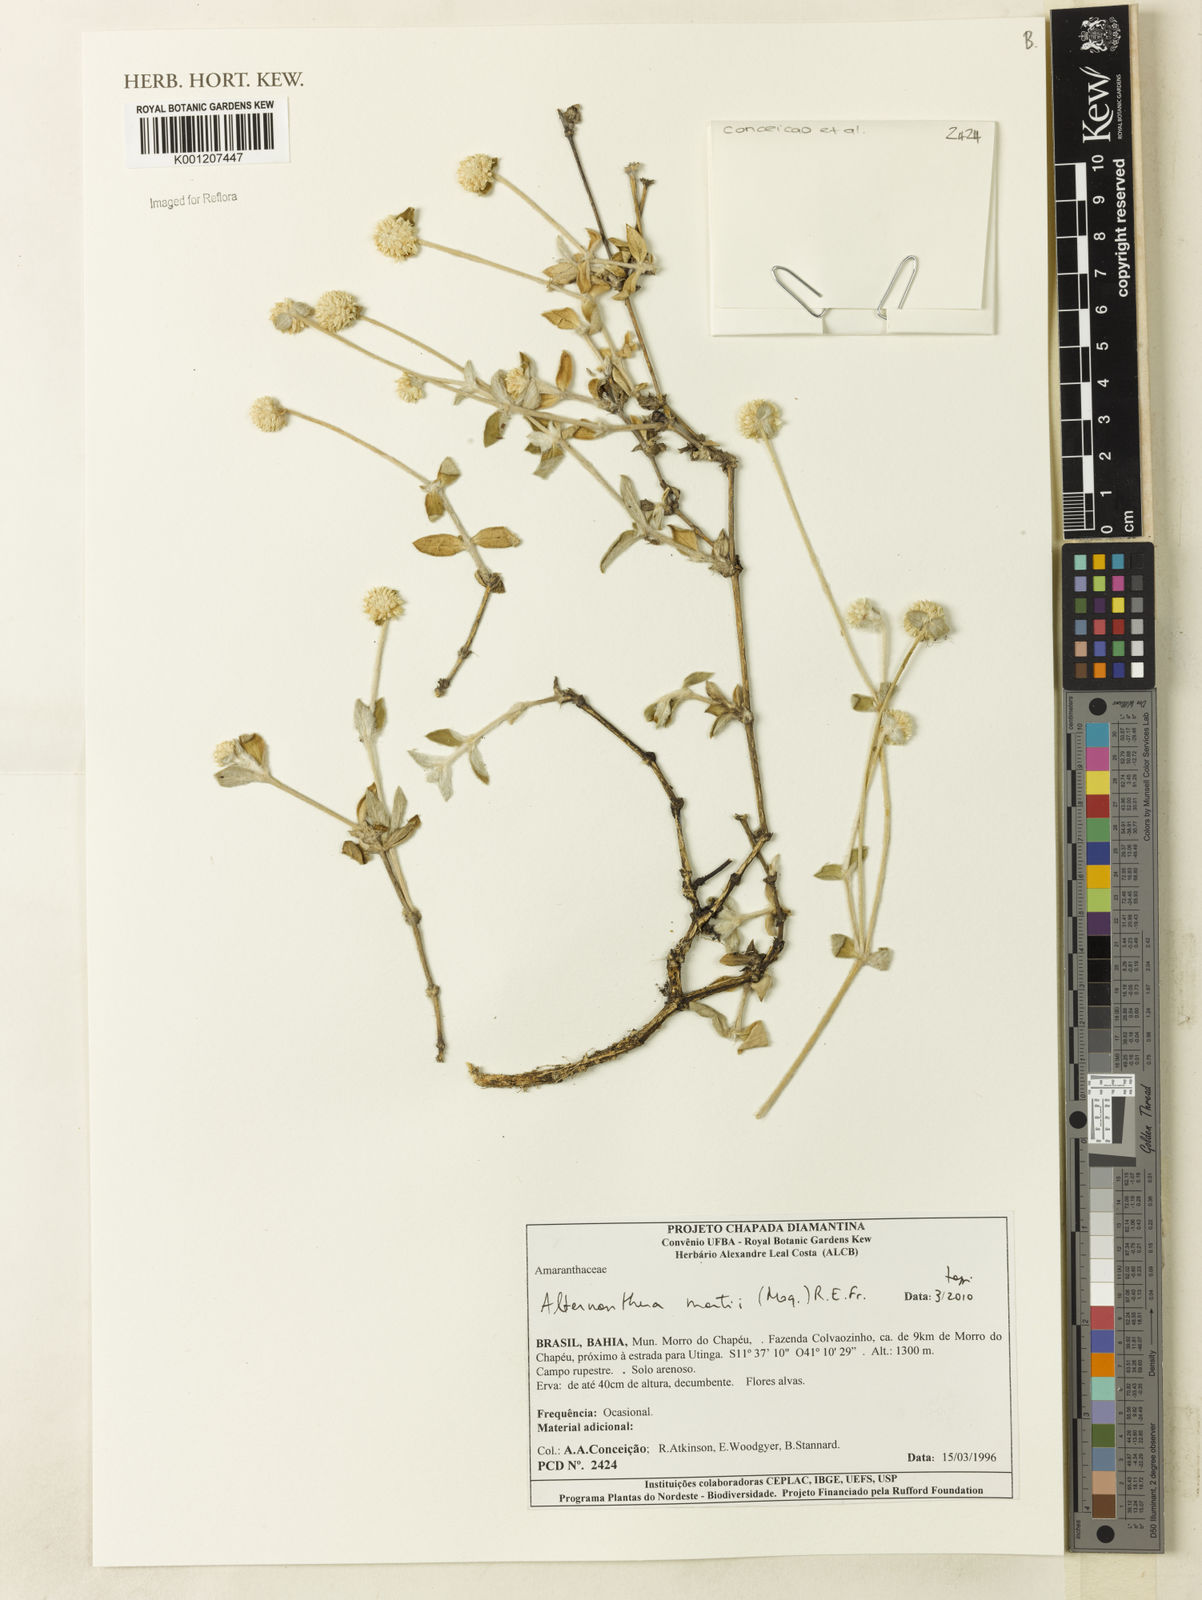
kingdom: Plantae
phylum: Tracheophyta
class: Magnoliopsida
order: Caryophyllales
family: Amaranthaceae
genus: Alternanthera
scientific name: Alternanthera martii
